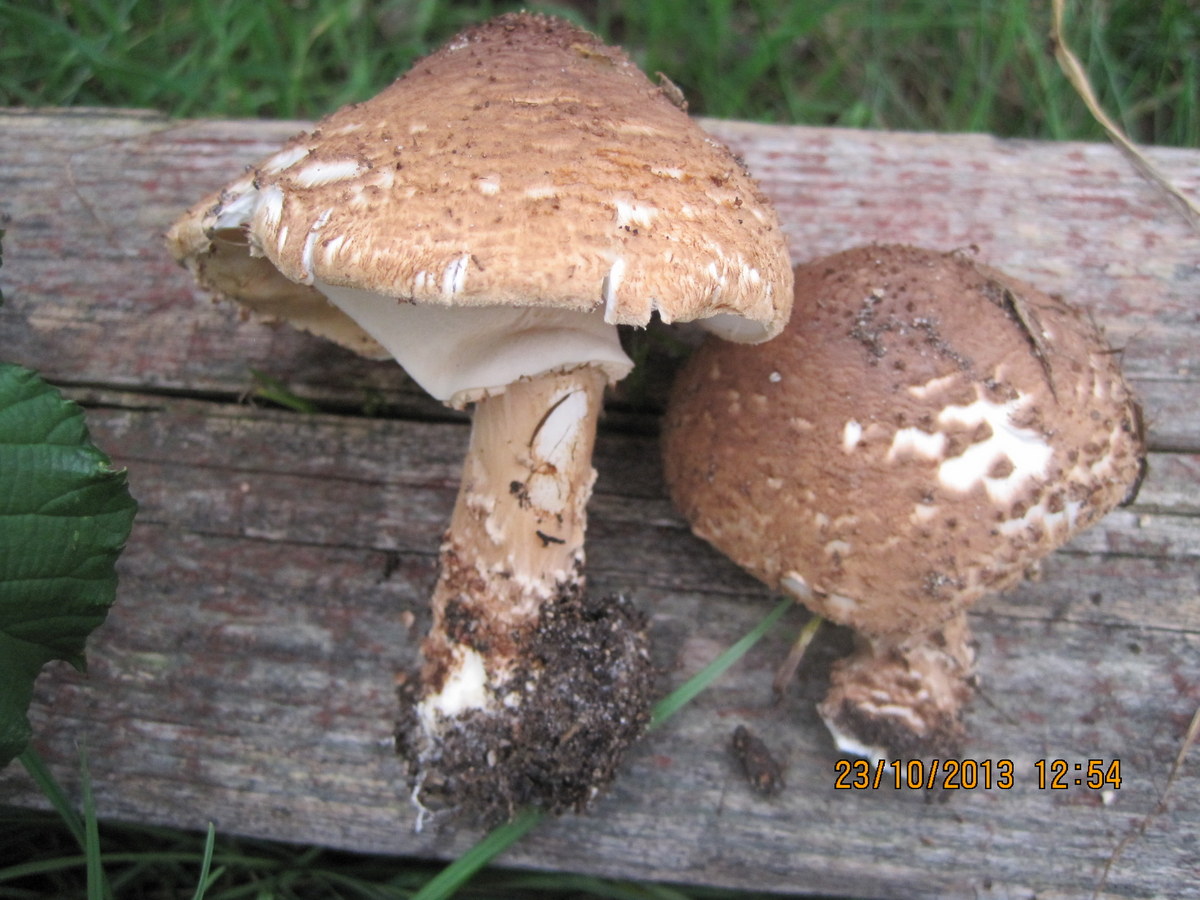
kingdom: Fungi
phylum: Basidiomycota
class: Agaricomycetes
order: Agaricales
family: Agaricaceae
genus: Echinoderma
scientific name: Echinoderma asperum
